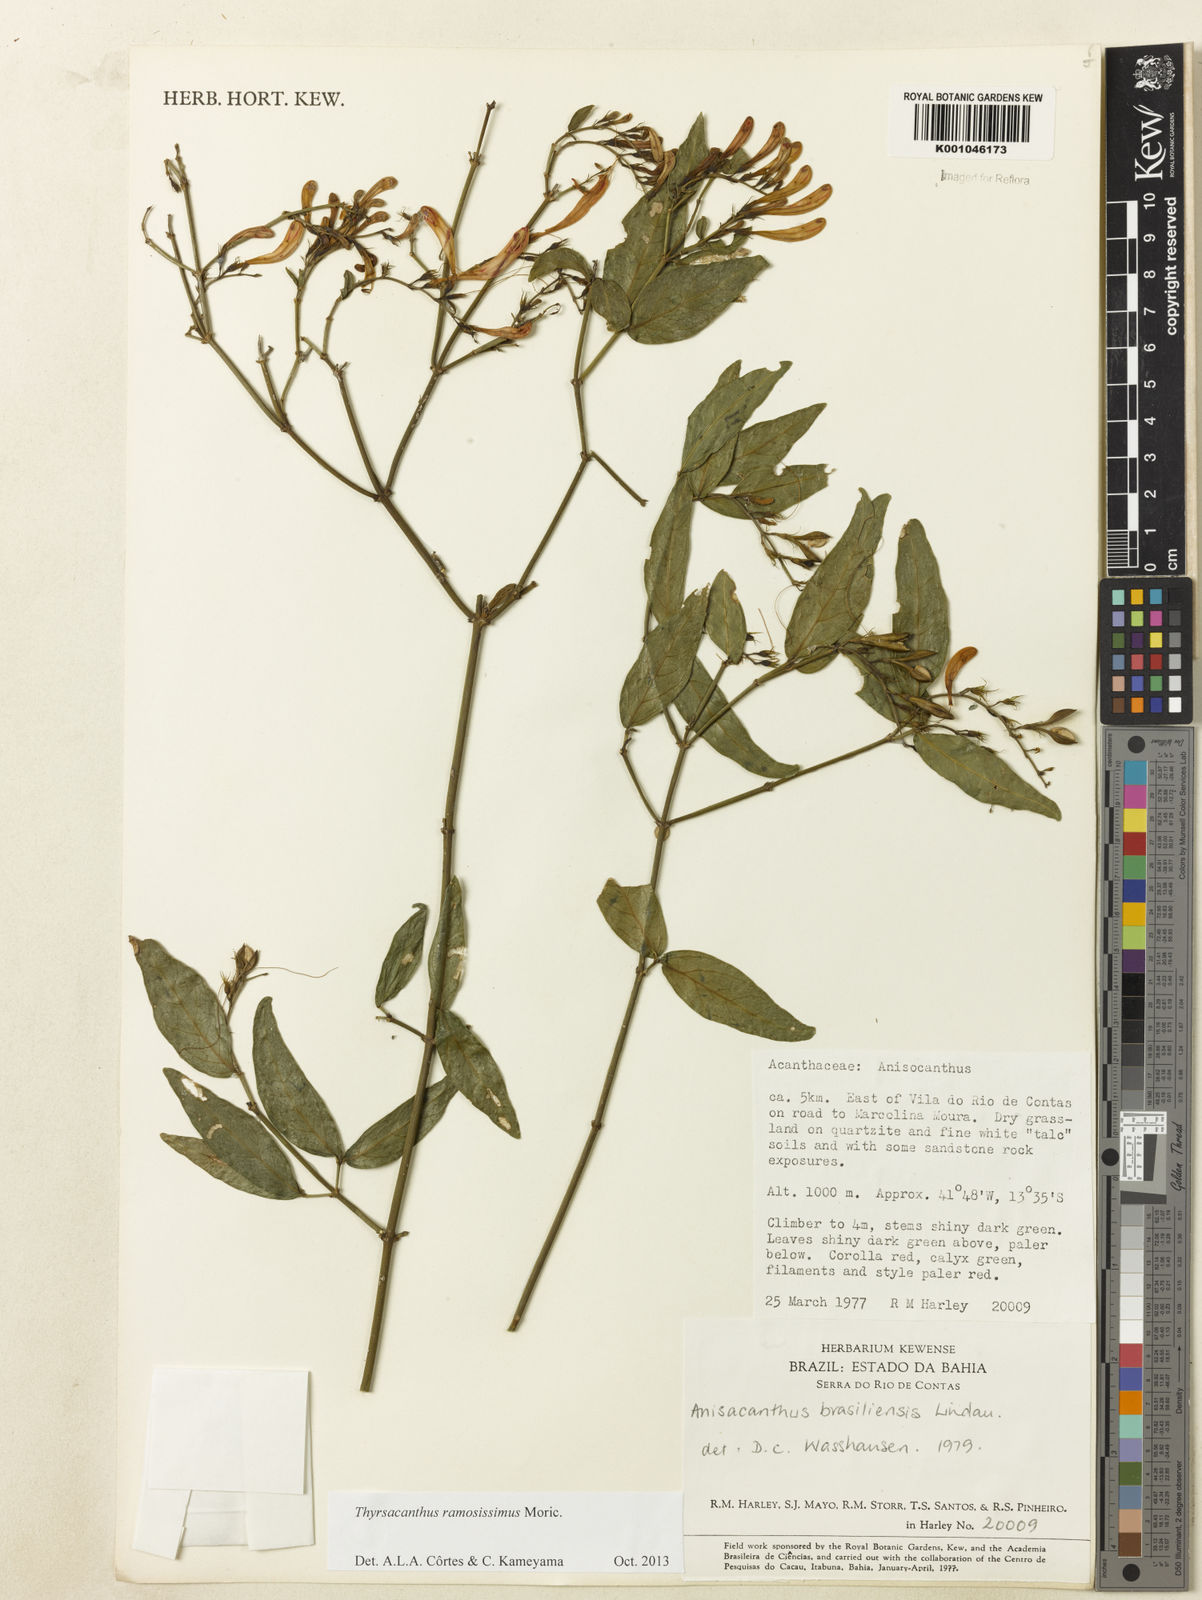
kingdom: Plantae
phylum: Tracheophyta
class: Magnoliopsida
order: Lamiales
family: Acanthaceae
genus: Thyrsacanthus
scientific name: Thyrsacanthus ramosissimus
